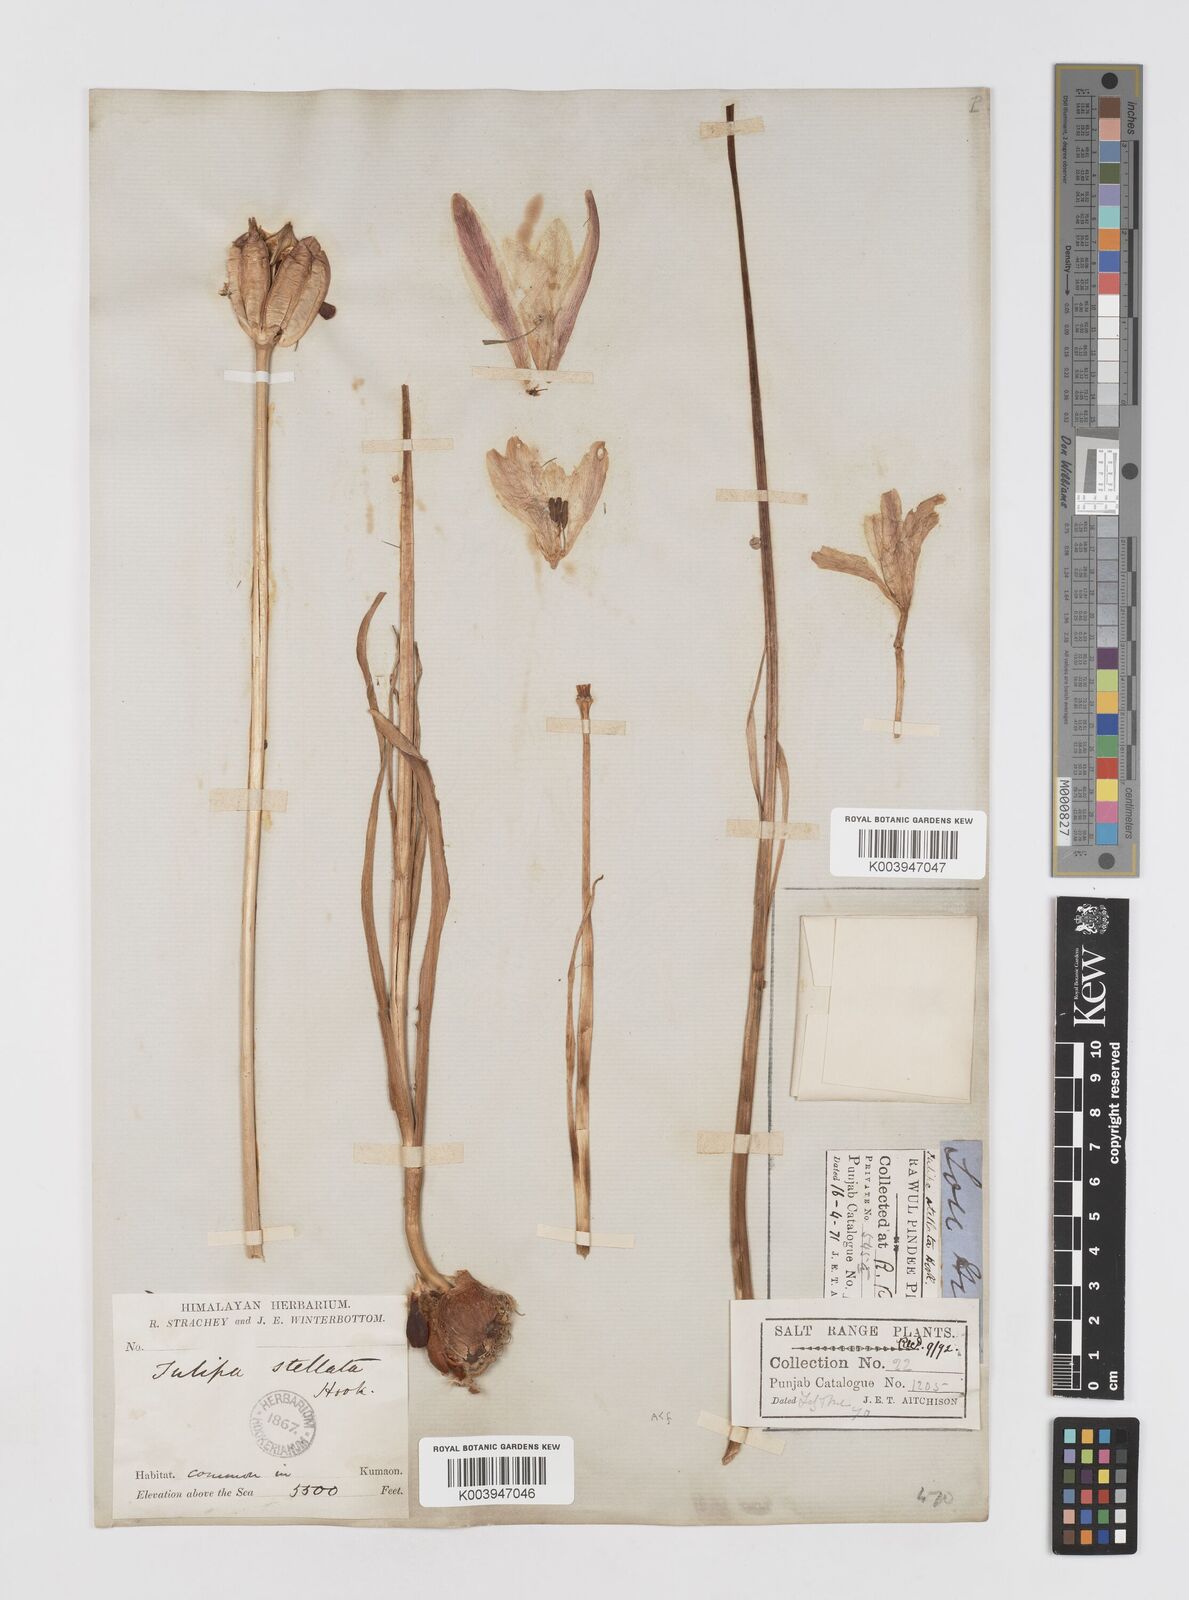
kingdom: Plantae
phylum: Tracheophyta
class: Liliopsida
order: Liliales
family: Liliaceae
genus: Tulipa
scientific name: Tulipa clusiana
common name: Lady tulip
